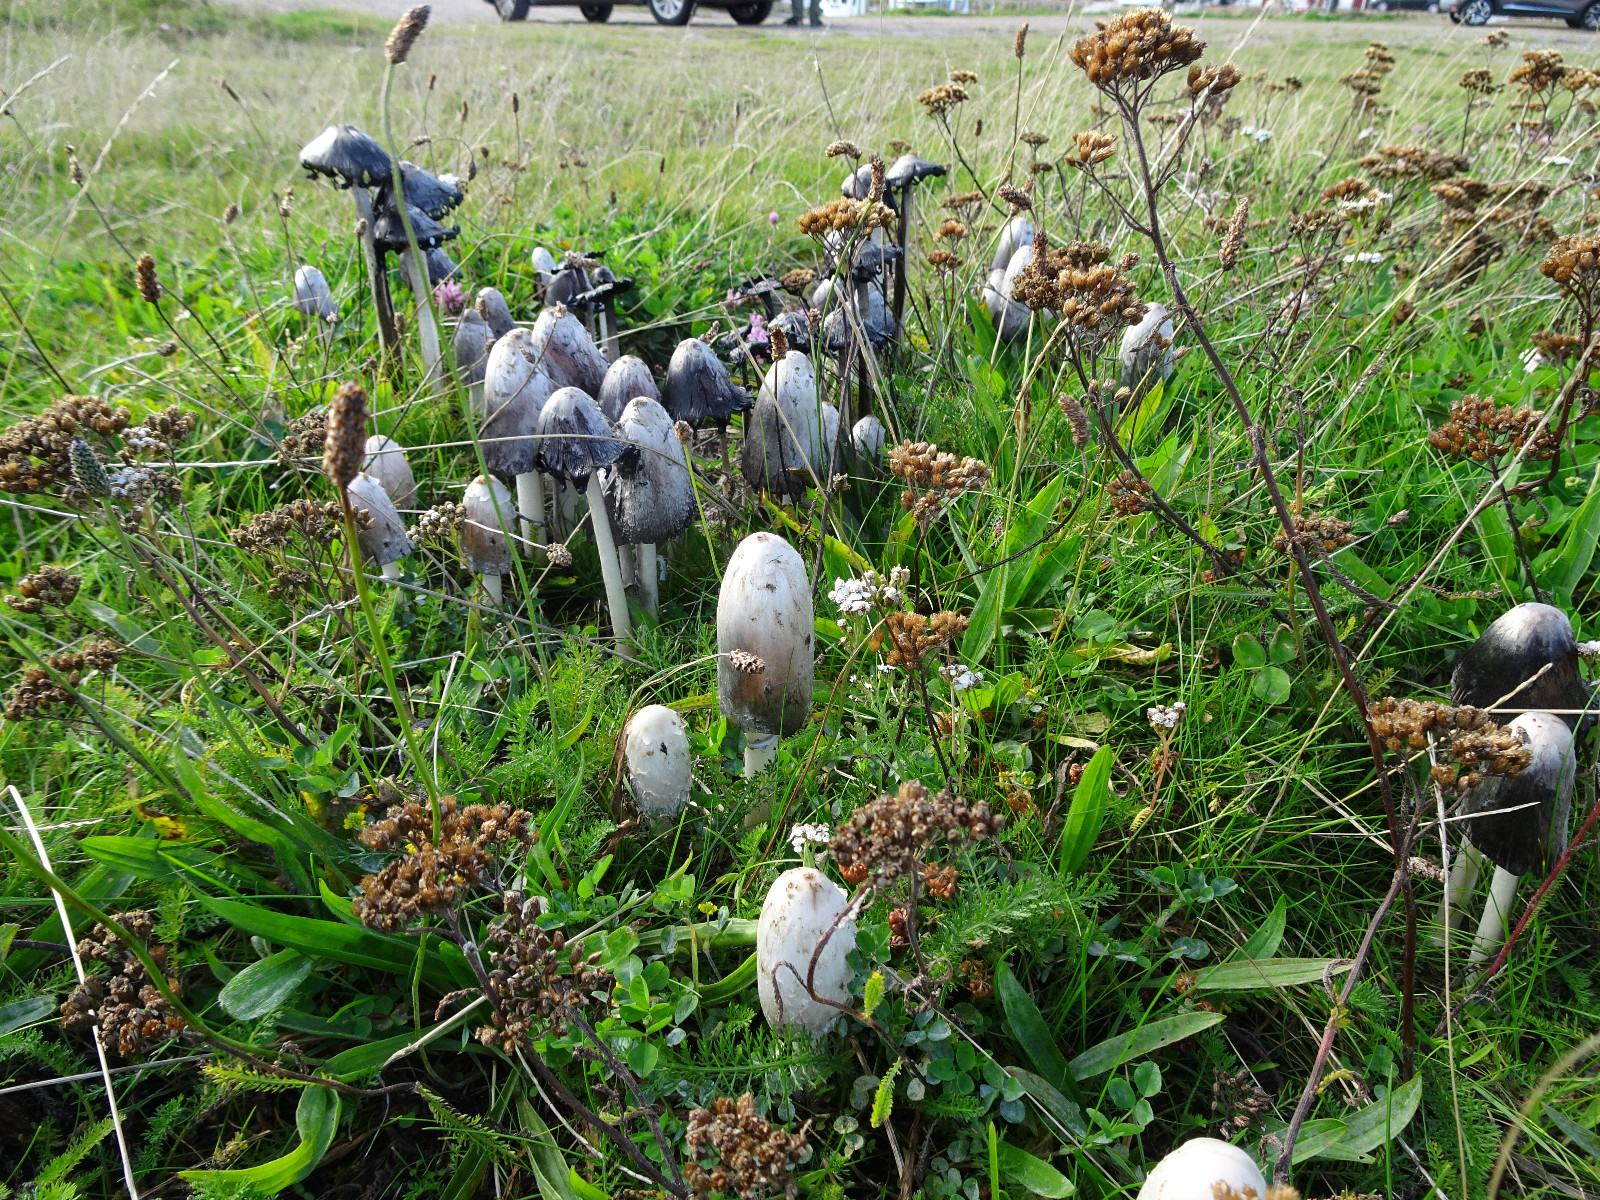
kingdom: Fungi
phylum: Basidiomycota
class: Agaricomycetes
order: Agaricales
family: Agaricaceae
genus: Coprinus
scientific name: Coprinus comatus
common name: stor parykhat
